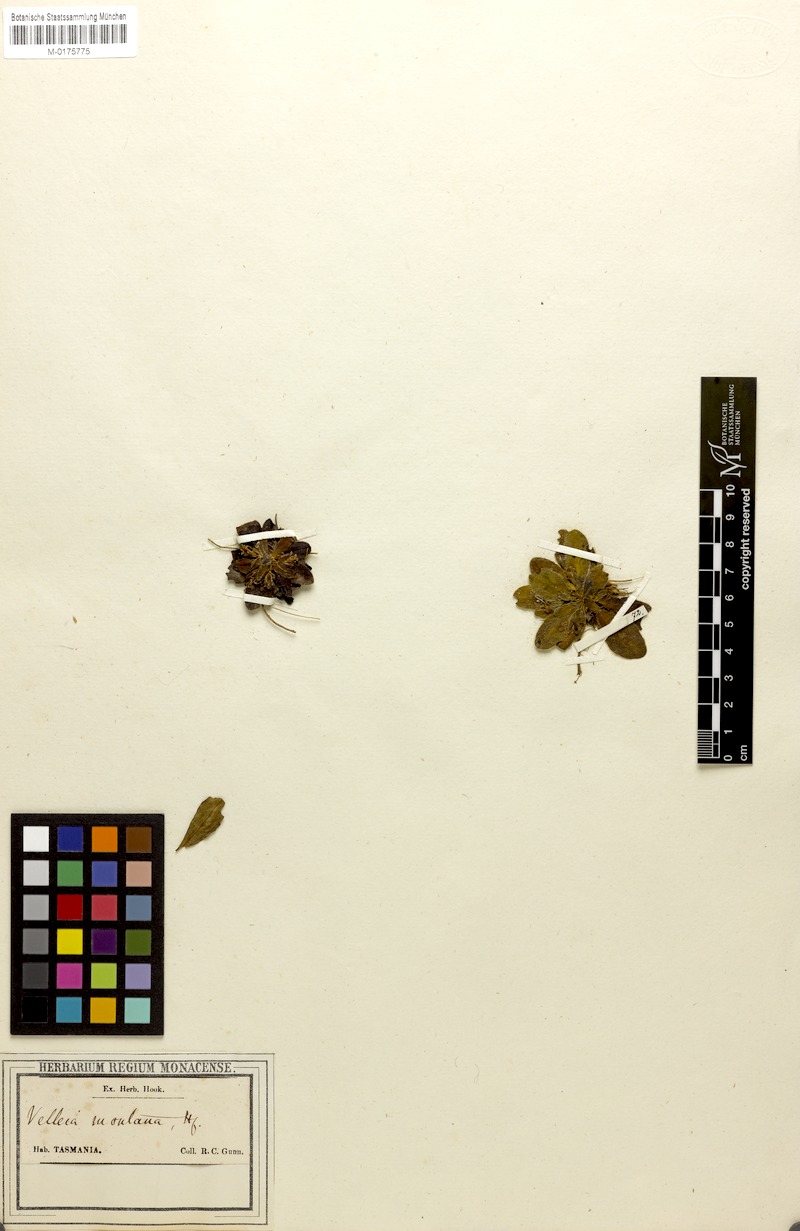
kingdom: Plantae
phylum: Tracheophyta
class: Magnoliopsida
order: Asterales
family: Goodeniaceae
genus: Goodenia
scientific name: Goodenia montana
